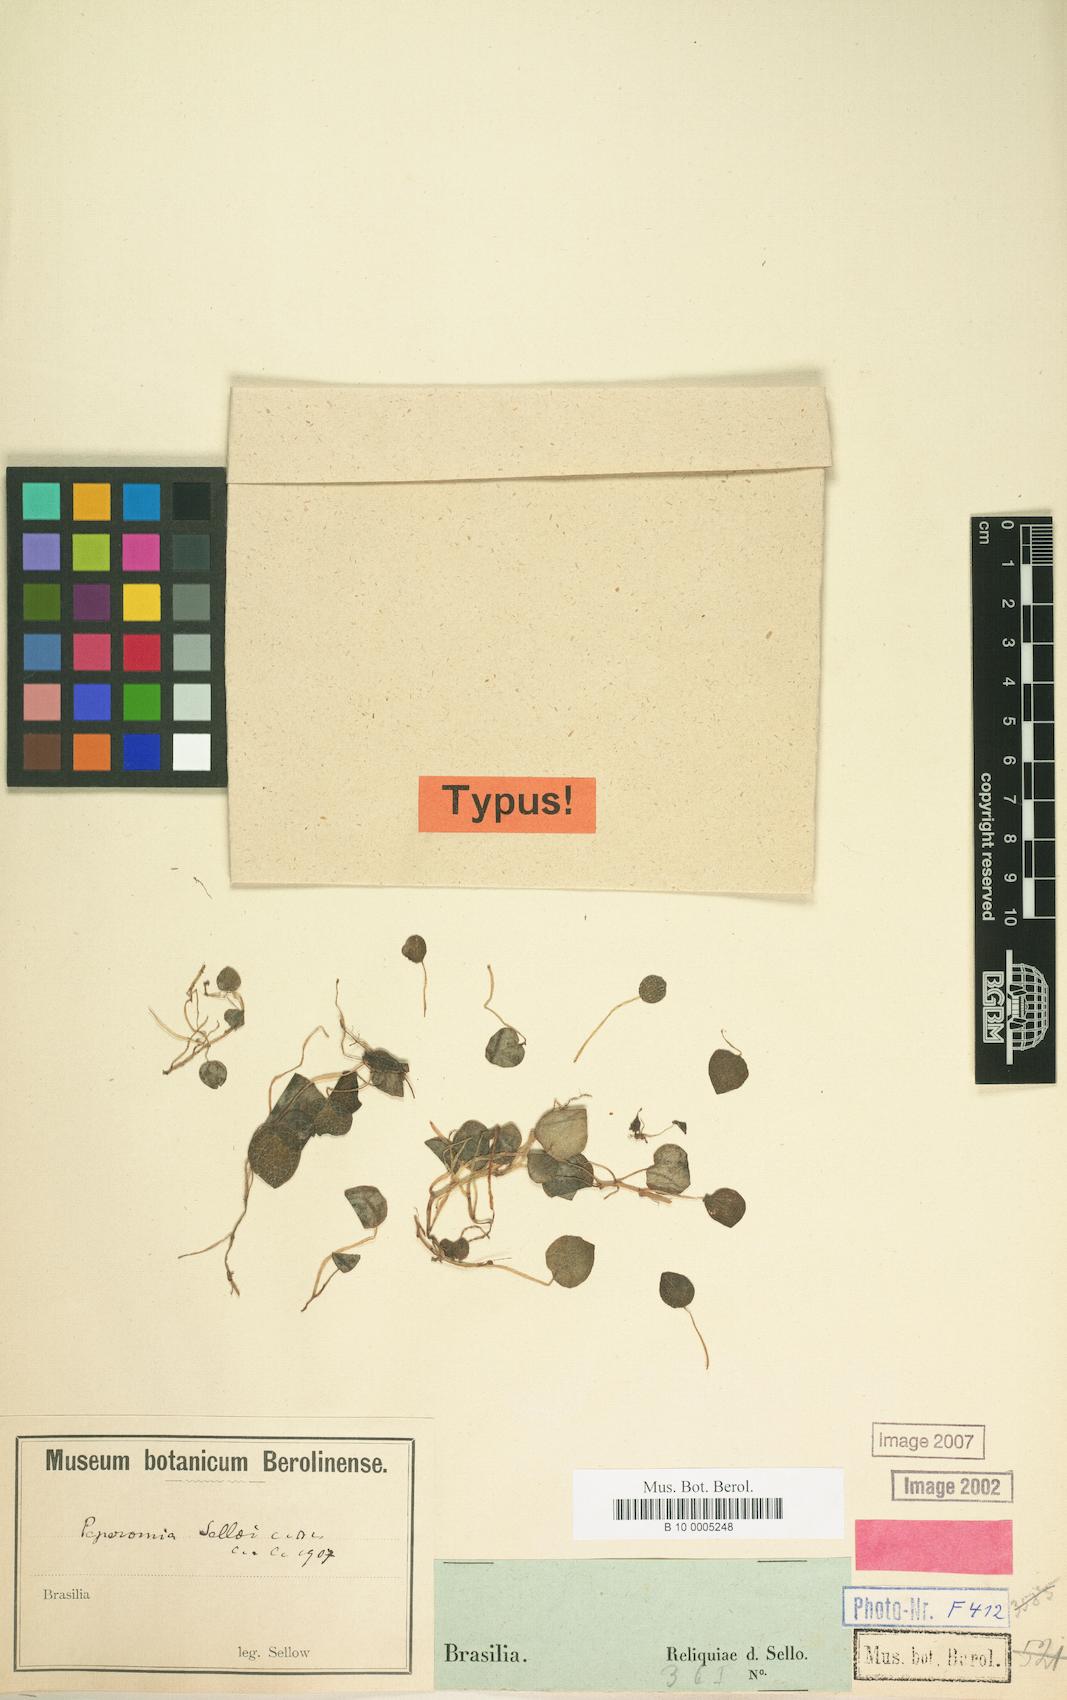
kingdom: Plantae
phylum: Tracheophyta
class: Magnoliopsida
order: Piperales
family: Piperaceae
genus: Peperomia
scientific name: Peperomia brasiliensis
